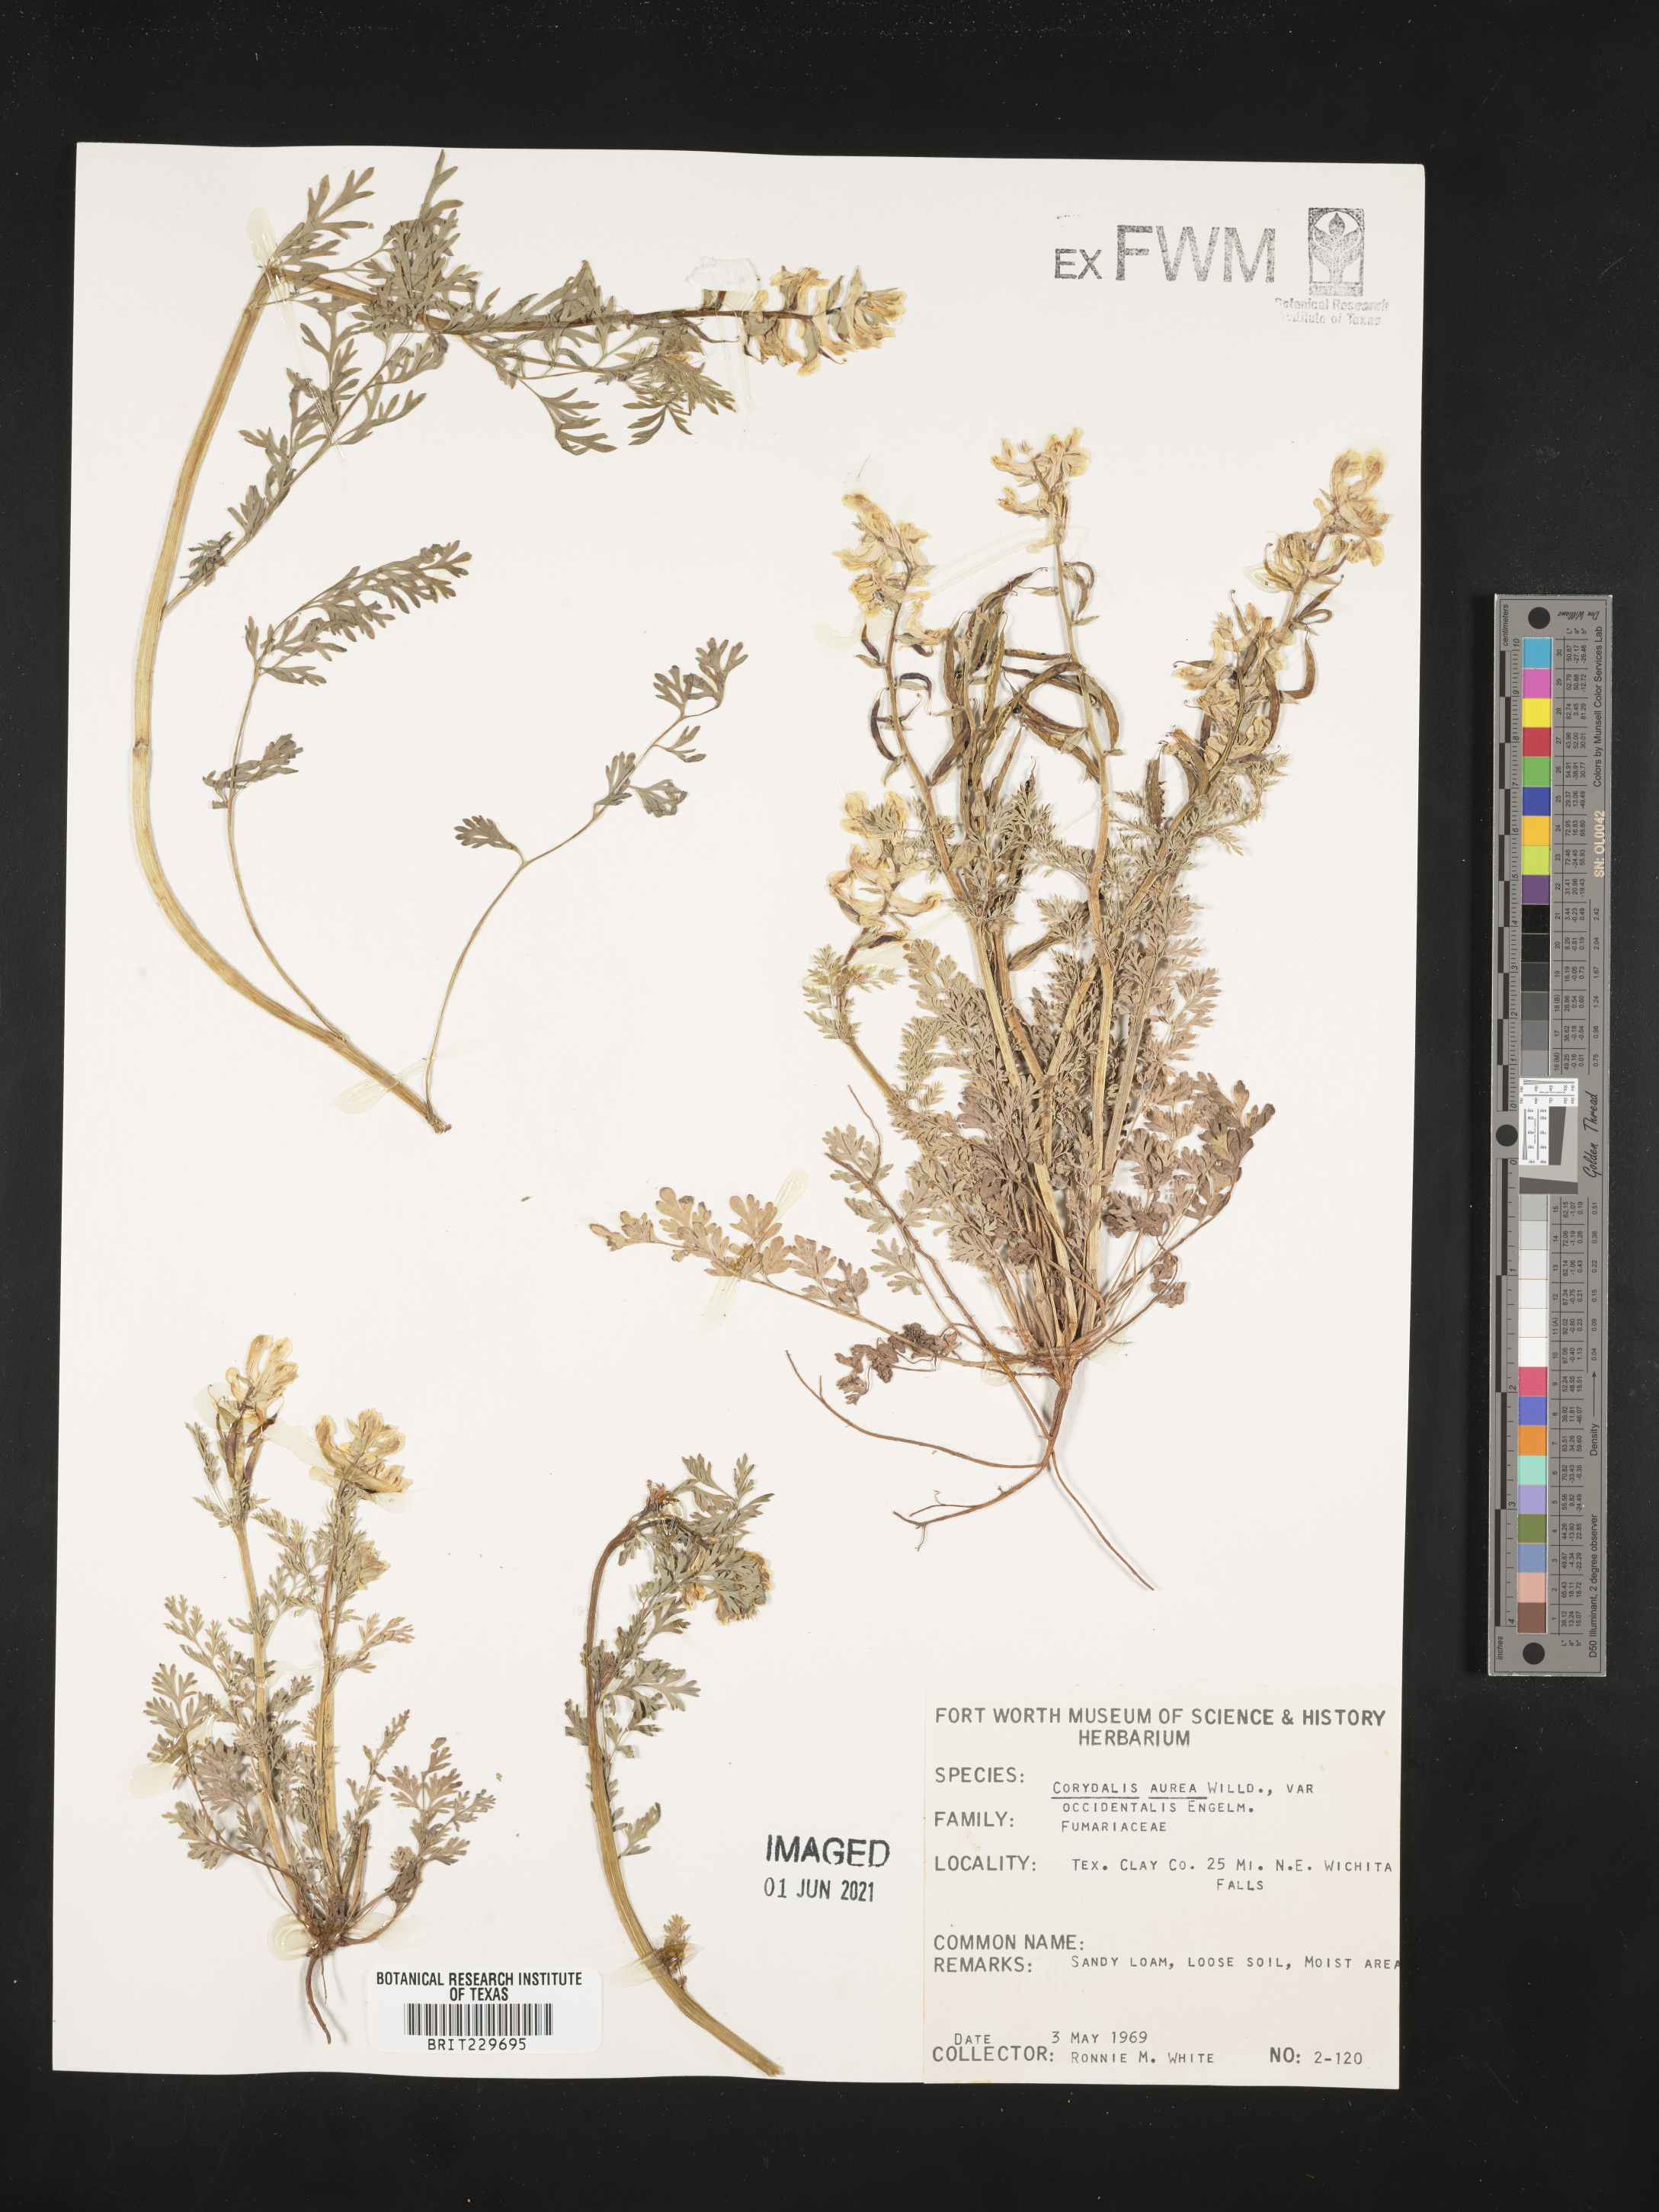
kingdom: Plantae
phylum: Tracheophyta
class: Magnoliopsida
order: Ranunculales
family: Papaveraceae
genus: Corydalis
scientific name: Corydalis curvisiliqua
